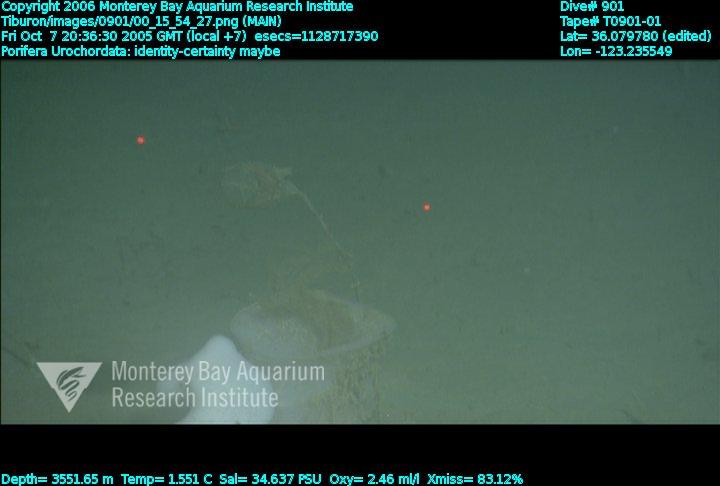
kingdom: Animalia
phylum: Porifera
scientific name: Porifera
